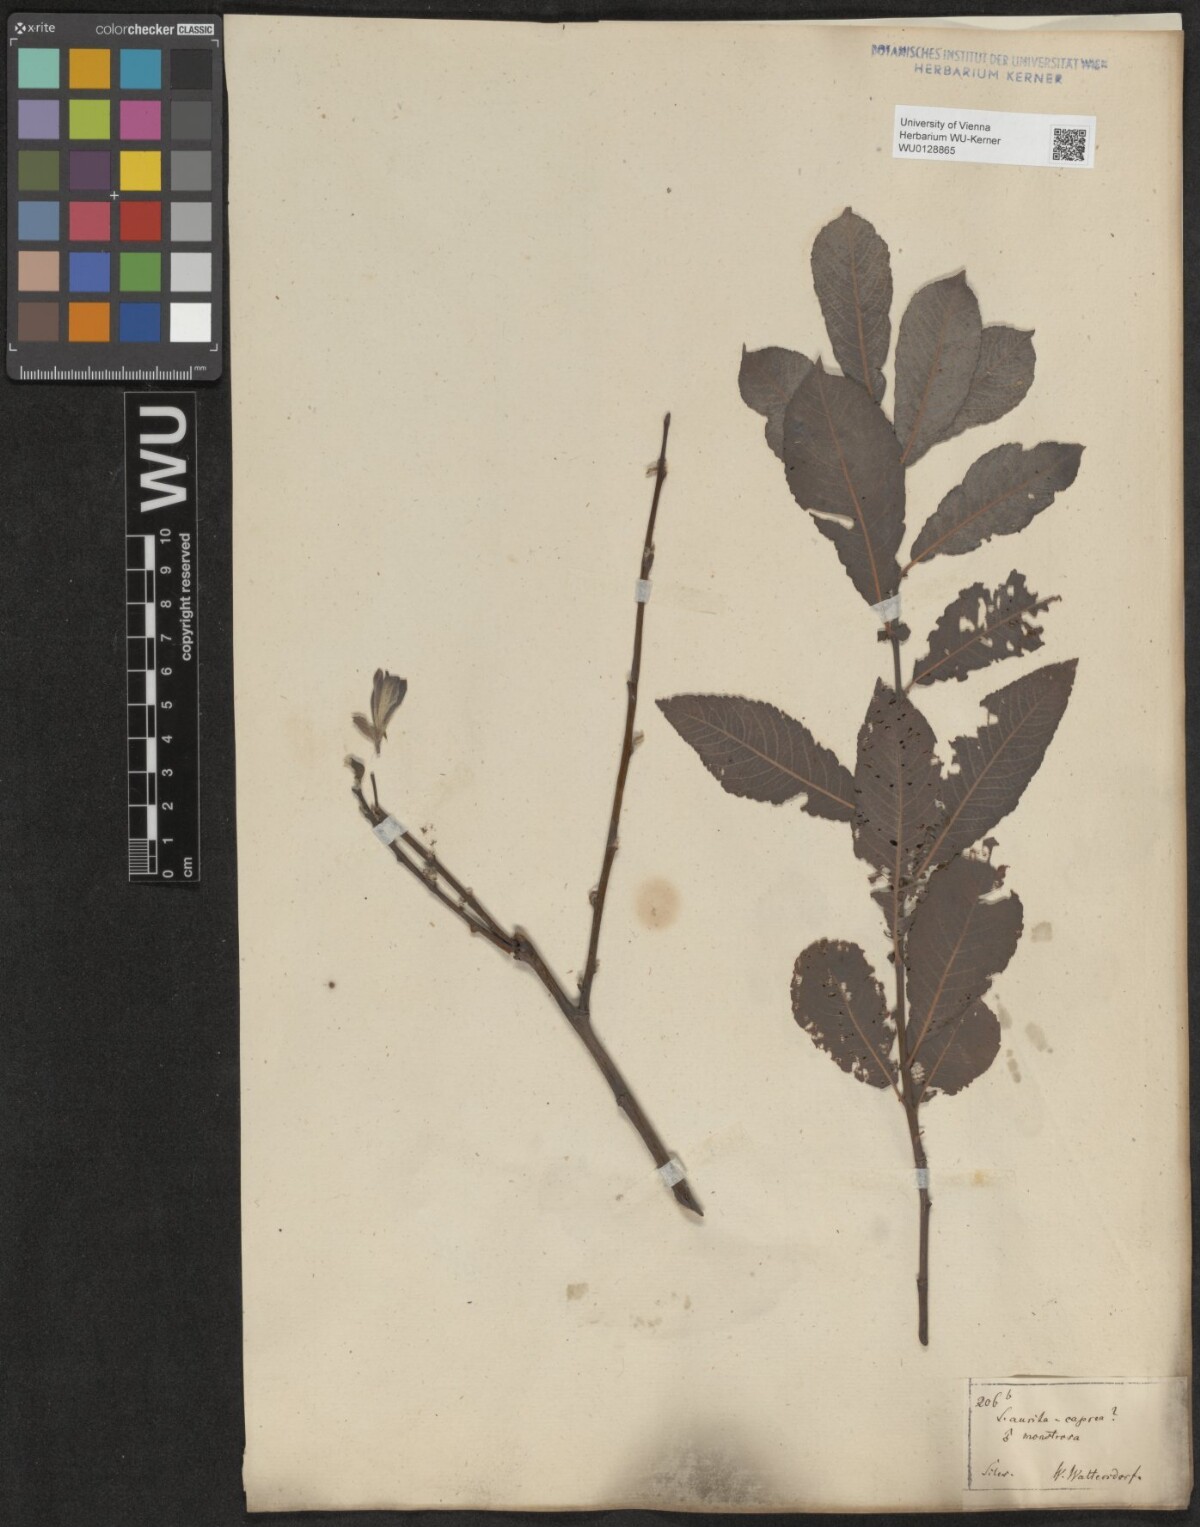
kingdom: Plantae
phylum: Tracheophyta
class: Magnoliopsida
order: Malpighiales
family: Salicaceae
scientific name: Salicaceae
